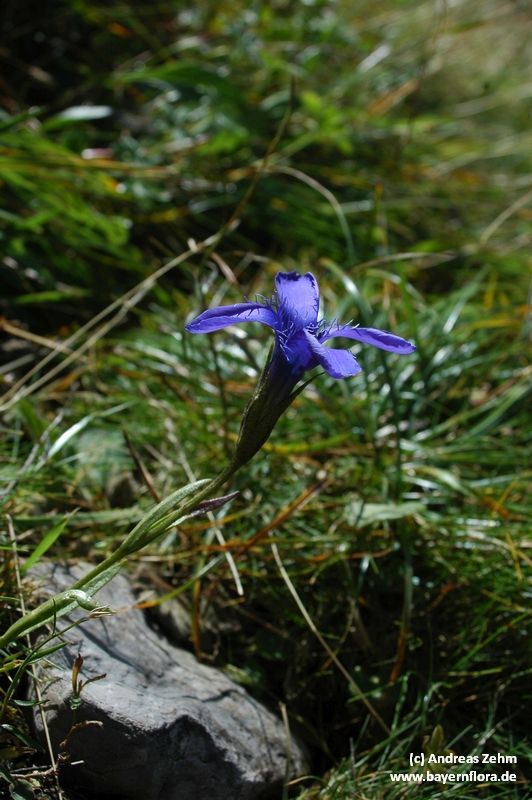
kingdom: Plantae
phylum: Tracheophyta
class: Magnoliopsida
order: Gentianales
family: Gentianaceae
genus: Gentianopsis
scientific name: Gentianopsis ciliata
